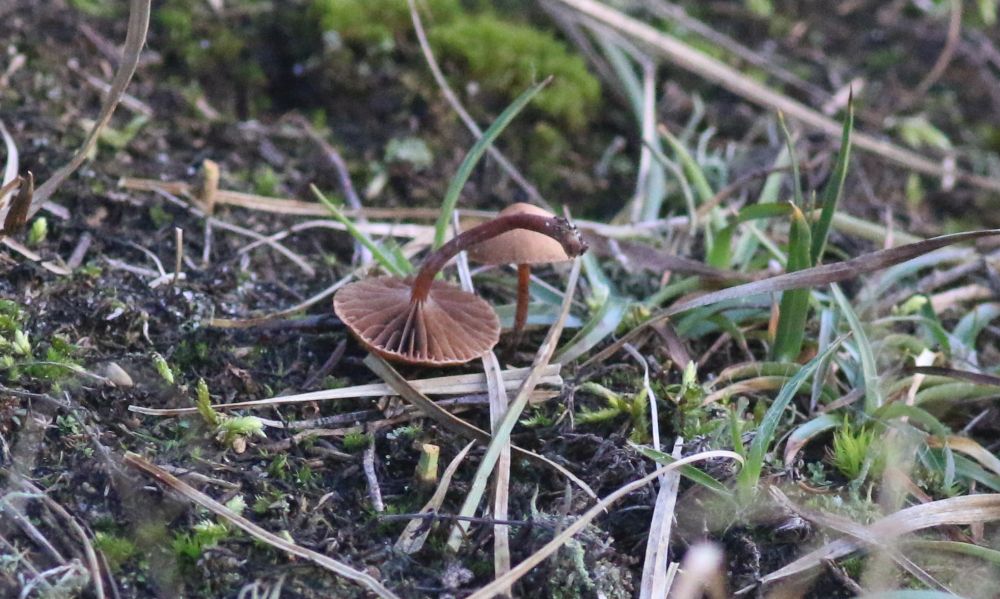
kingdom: Fungi
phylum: Basidiomycota
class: Agaricomycetes
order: Agaricales
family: Strophariaceae
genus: Deconica
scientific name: Deconica montana
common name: rødbrun stråhat
